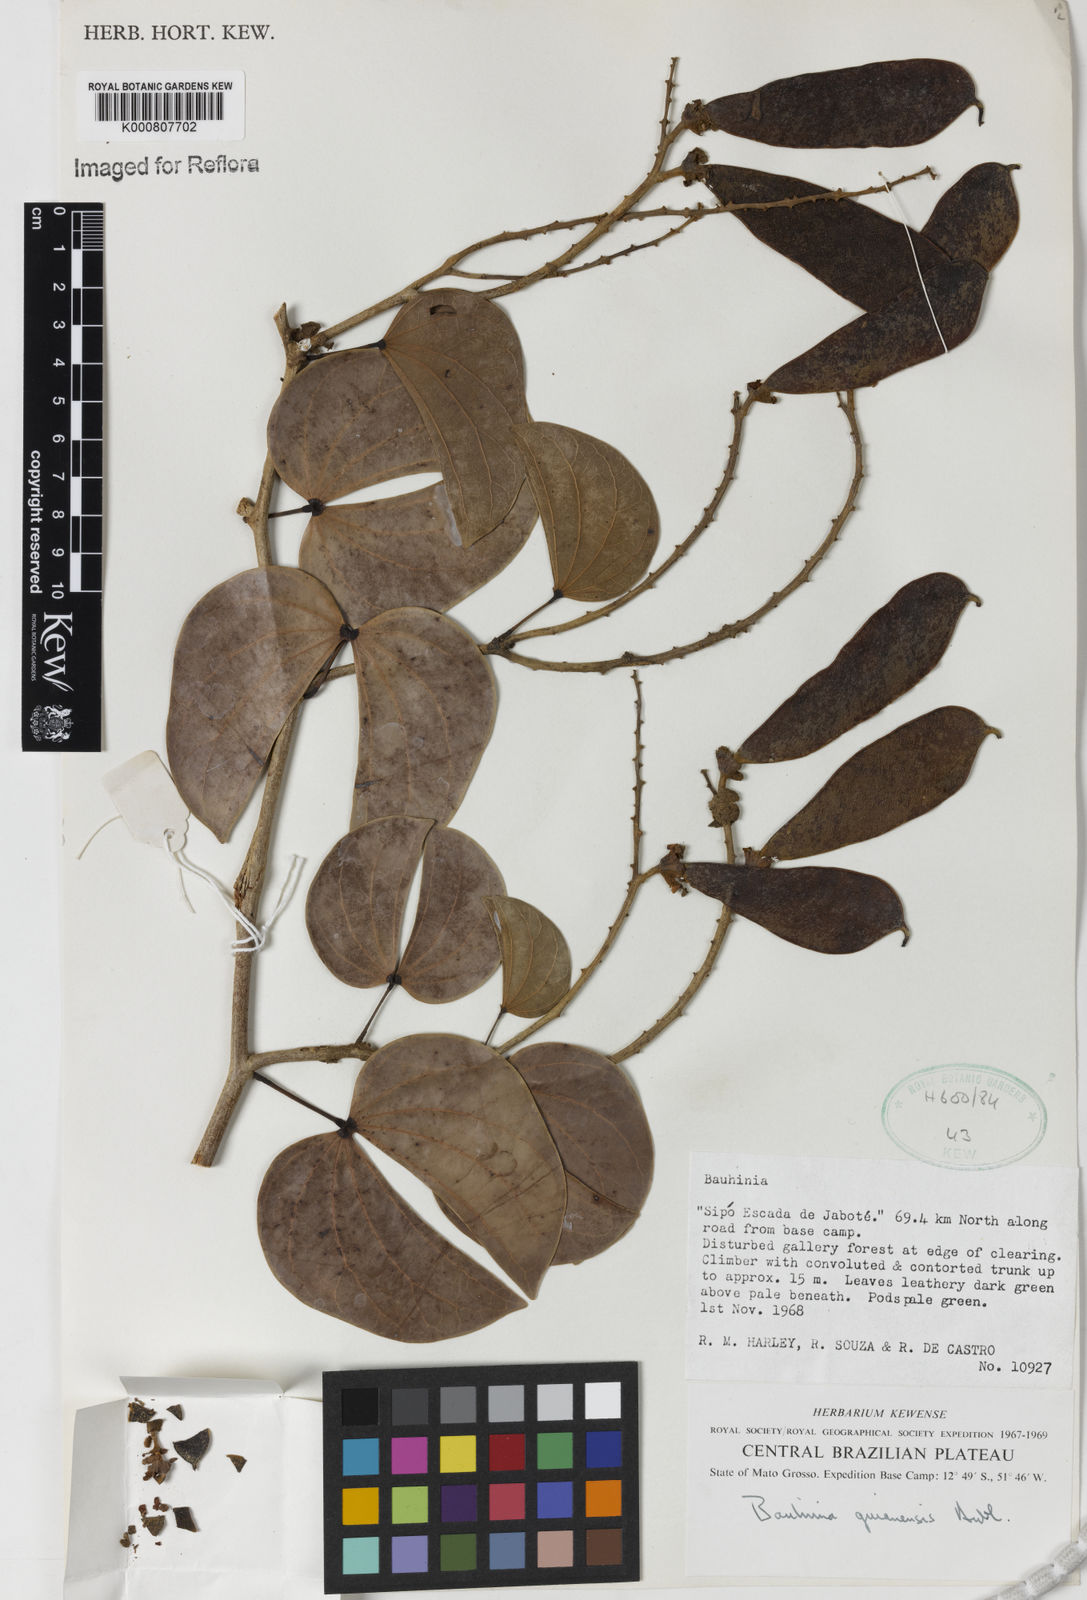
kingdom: Plantae
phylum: Tracheophyta
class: Magnoliopsida
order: Fabales
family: Fabaceae
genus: Schnella
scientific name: Schnella guianensis
